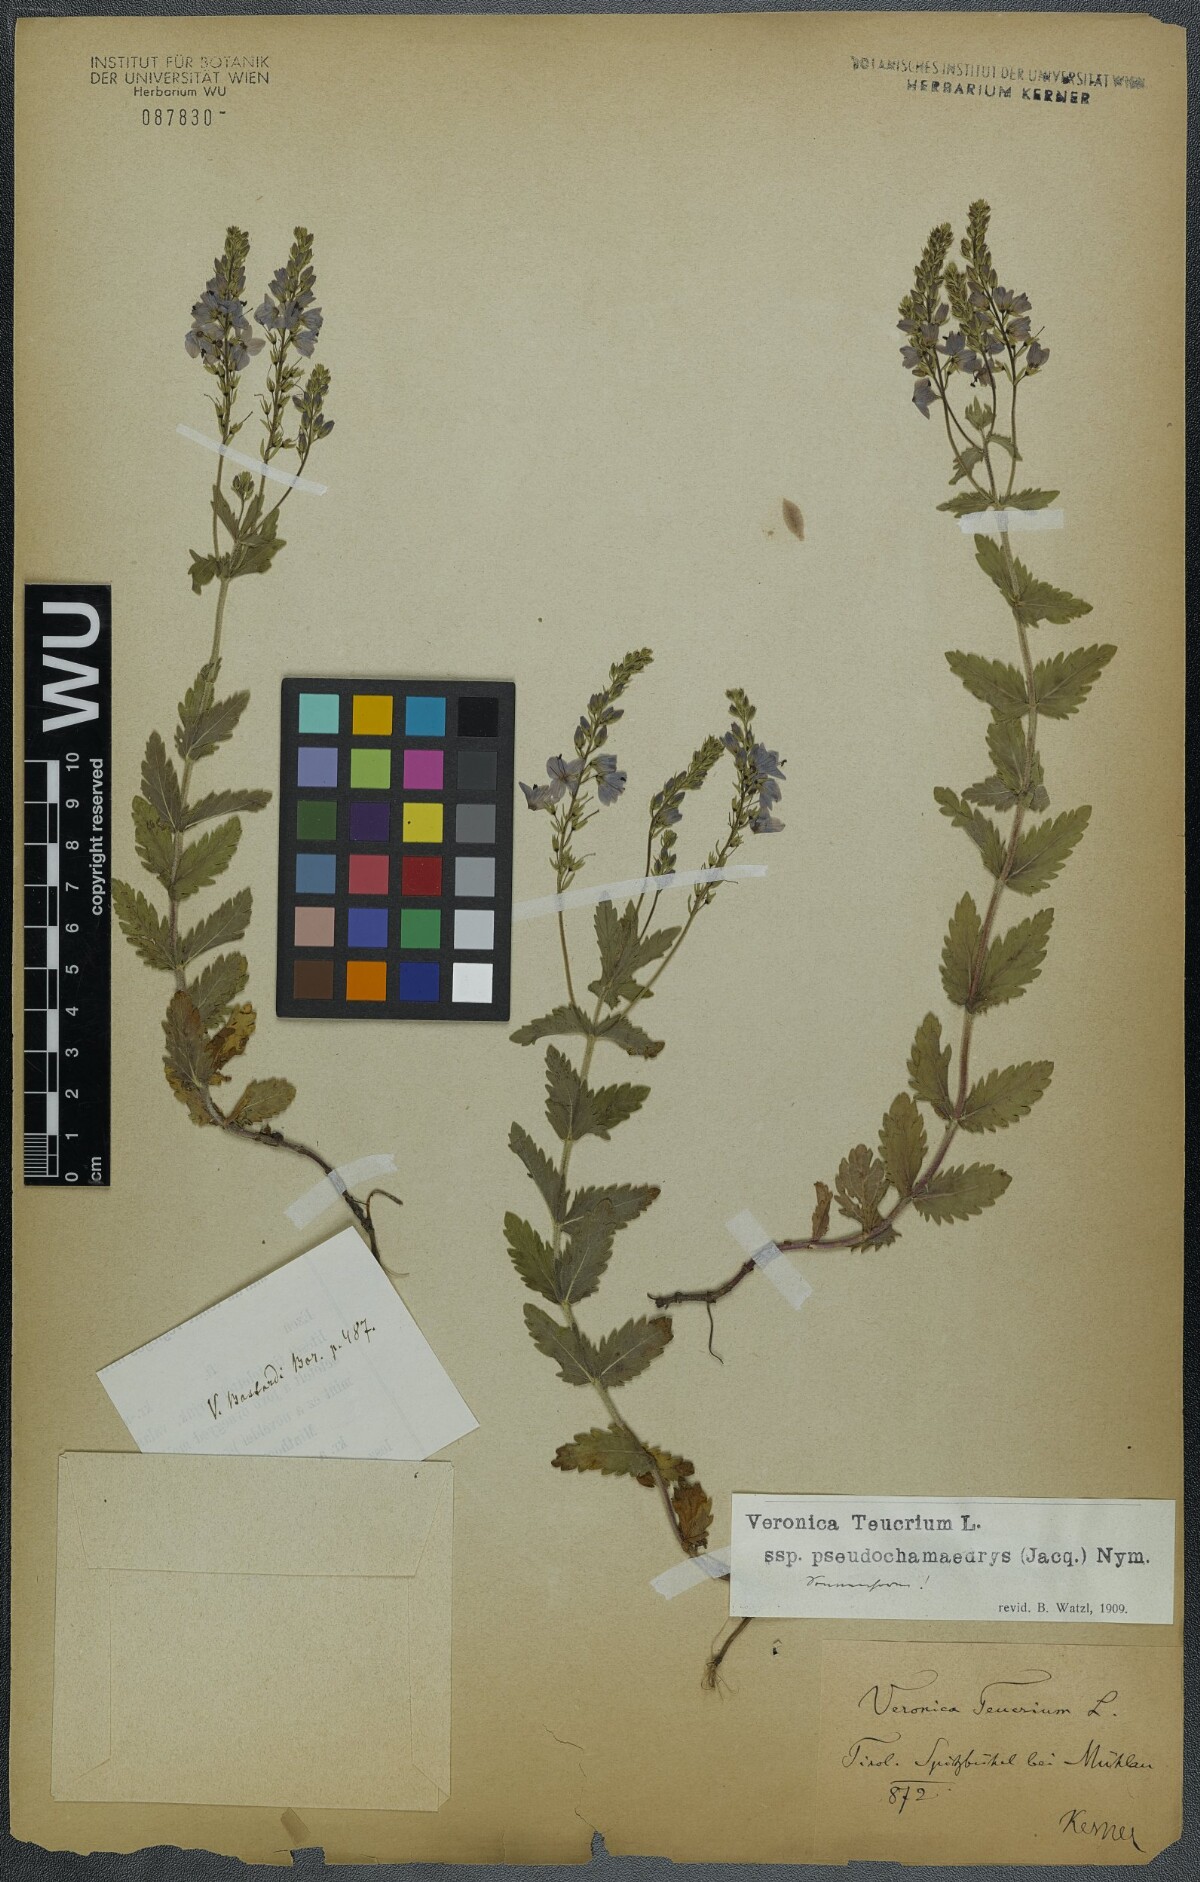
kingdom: Plantae
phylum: Tracheophyta
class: Magnoliopsida
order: Lamiales
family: Plantaginaceae
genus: Veronica
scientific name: Veronica teucrium
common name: Large speedwell
